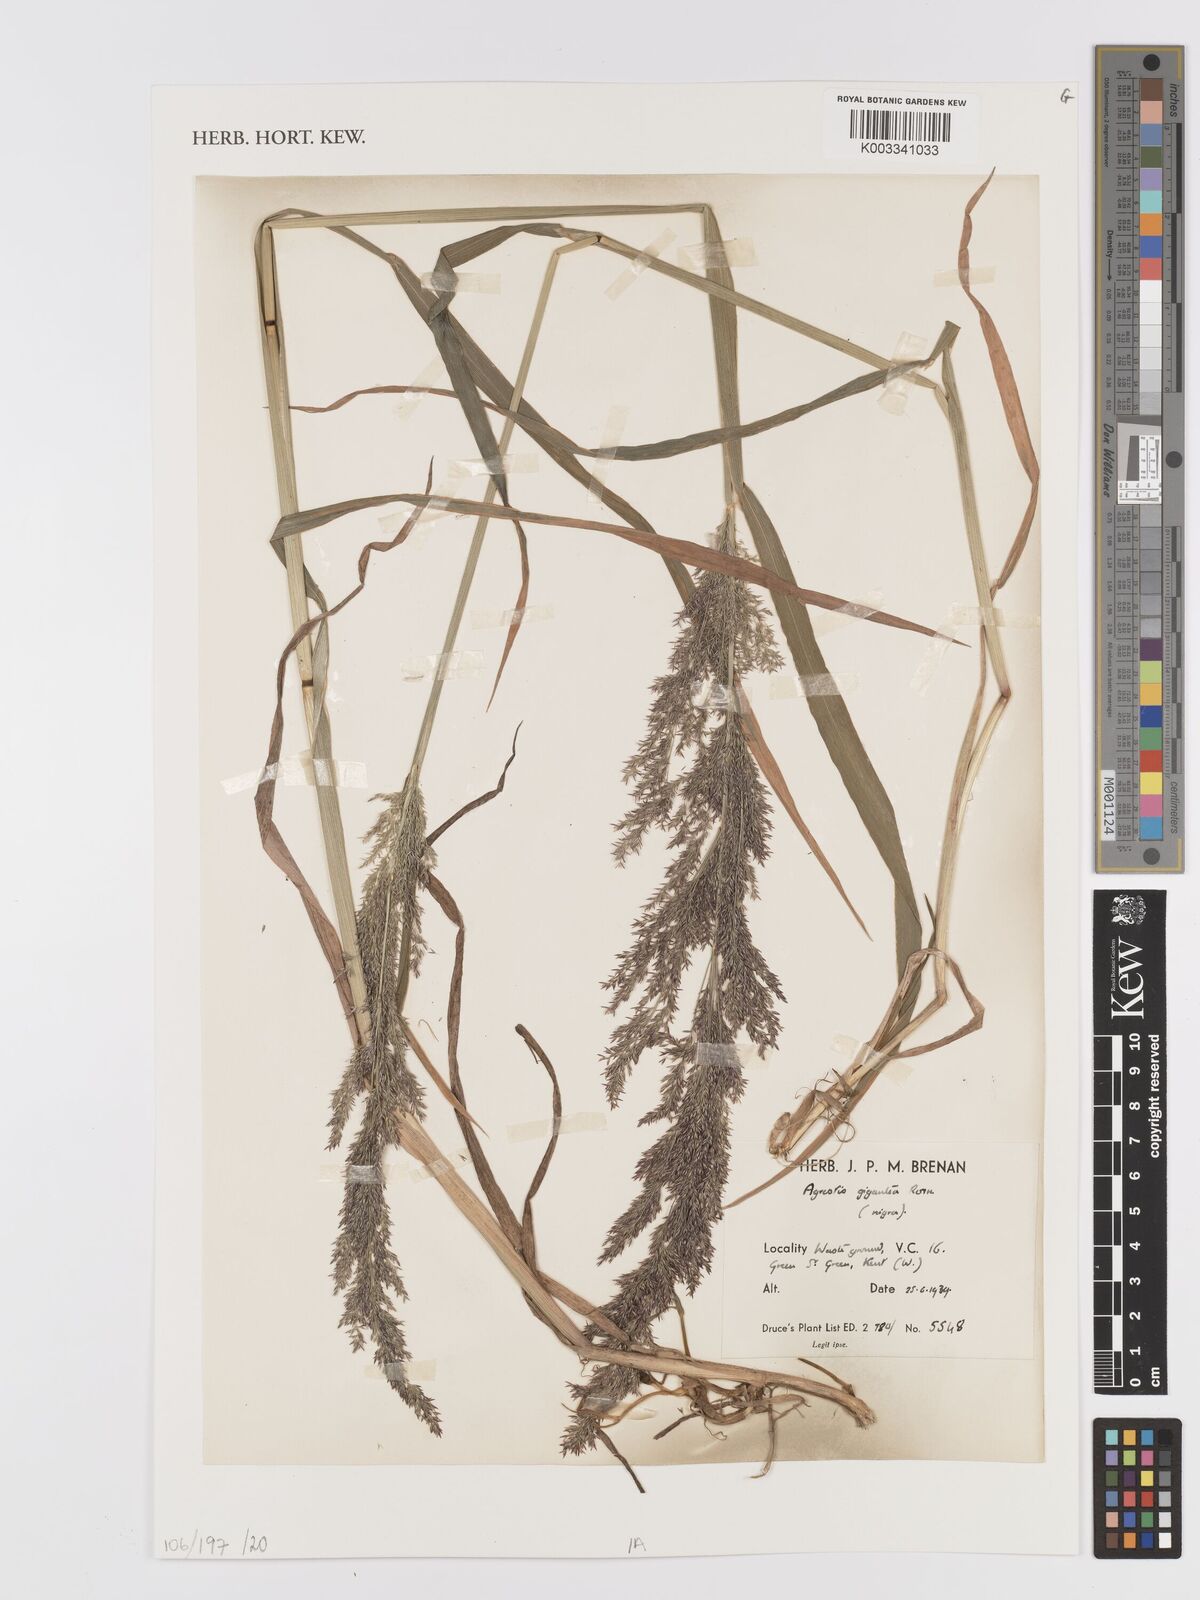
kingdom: Plantae
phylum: Tracheophyta
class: Liliopsida
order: Poales
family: Poaceae
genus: Agrostis
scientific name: Agrostis gigantea
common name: Black bent
